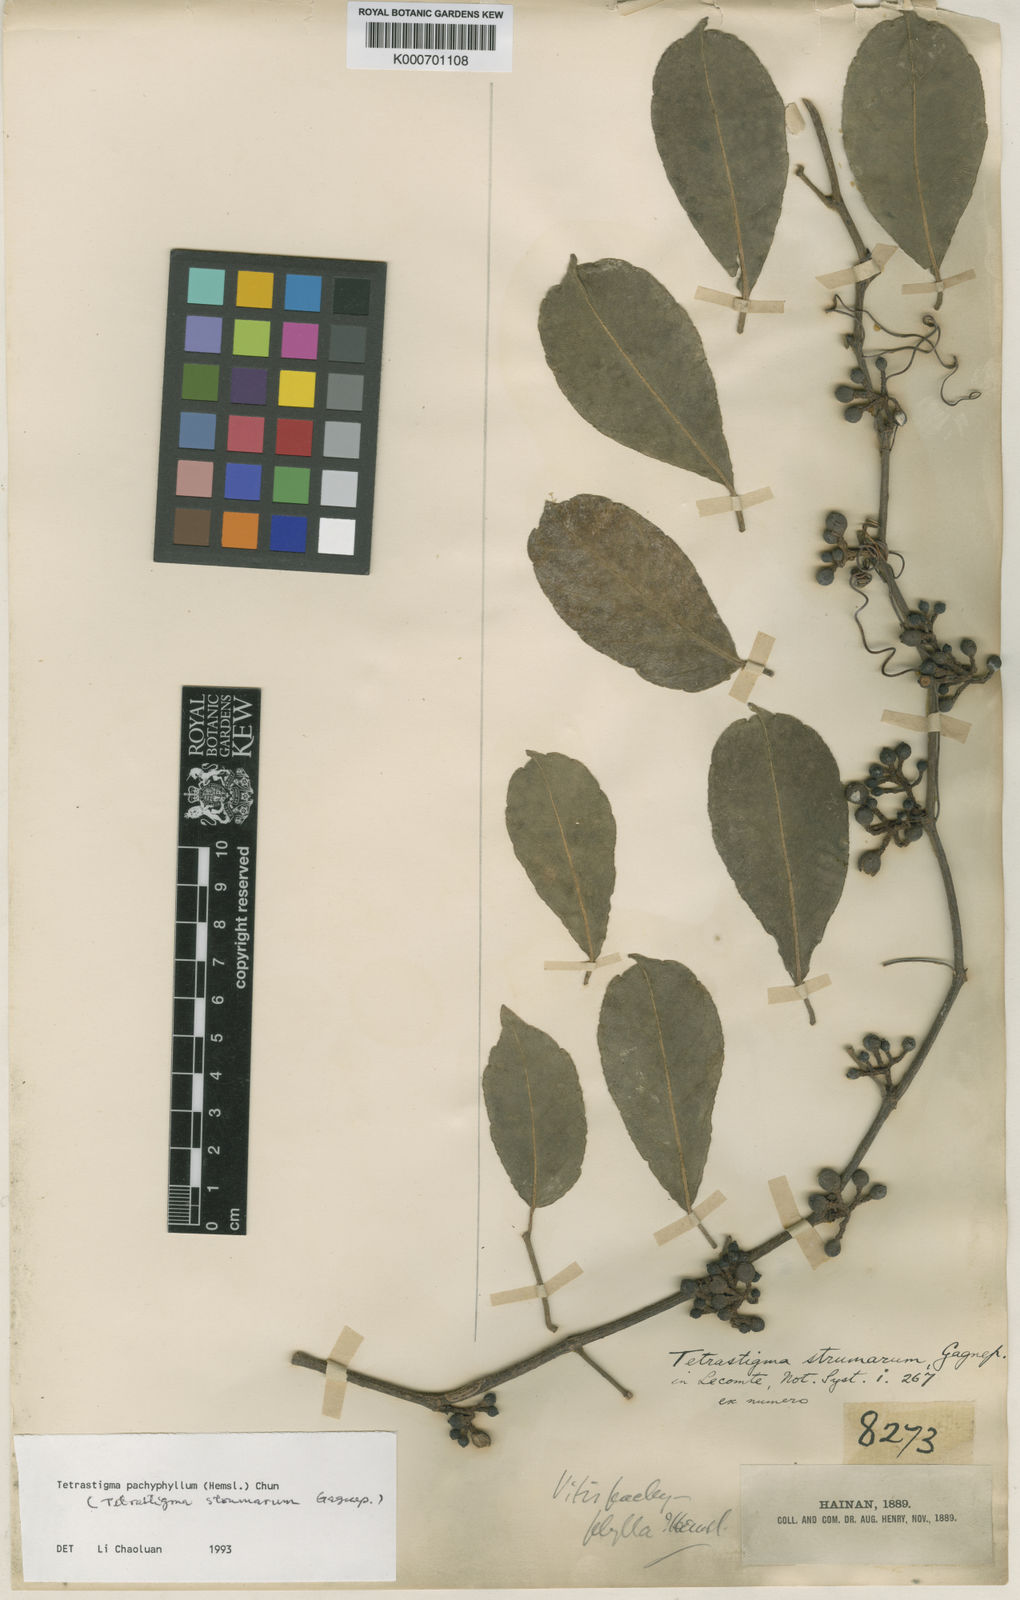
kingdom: Plantae
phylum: Tracheophyta
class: Magnoliopsida
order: Vitales
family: Vitaceae
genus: Tetrastigma
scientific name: Tetrastigma pachyphyllum
